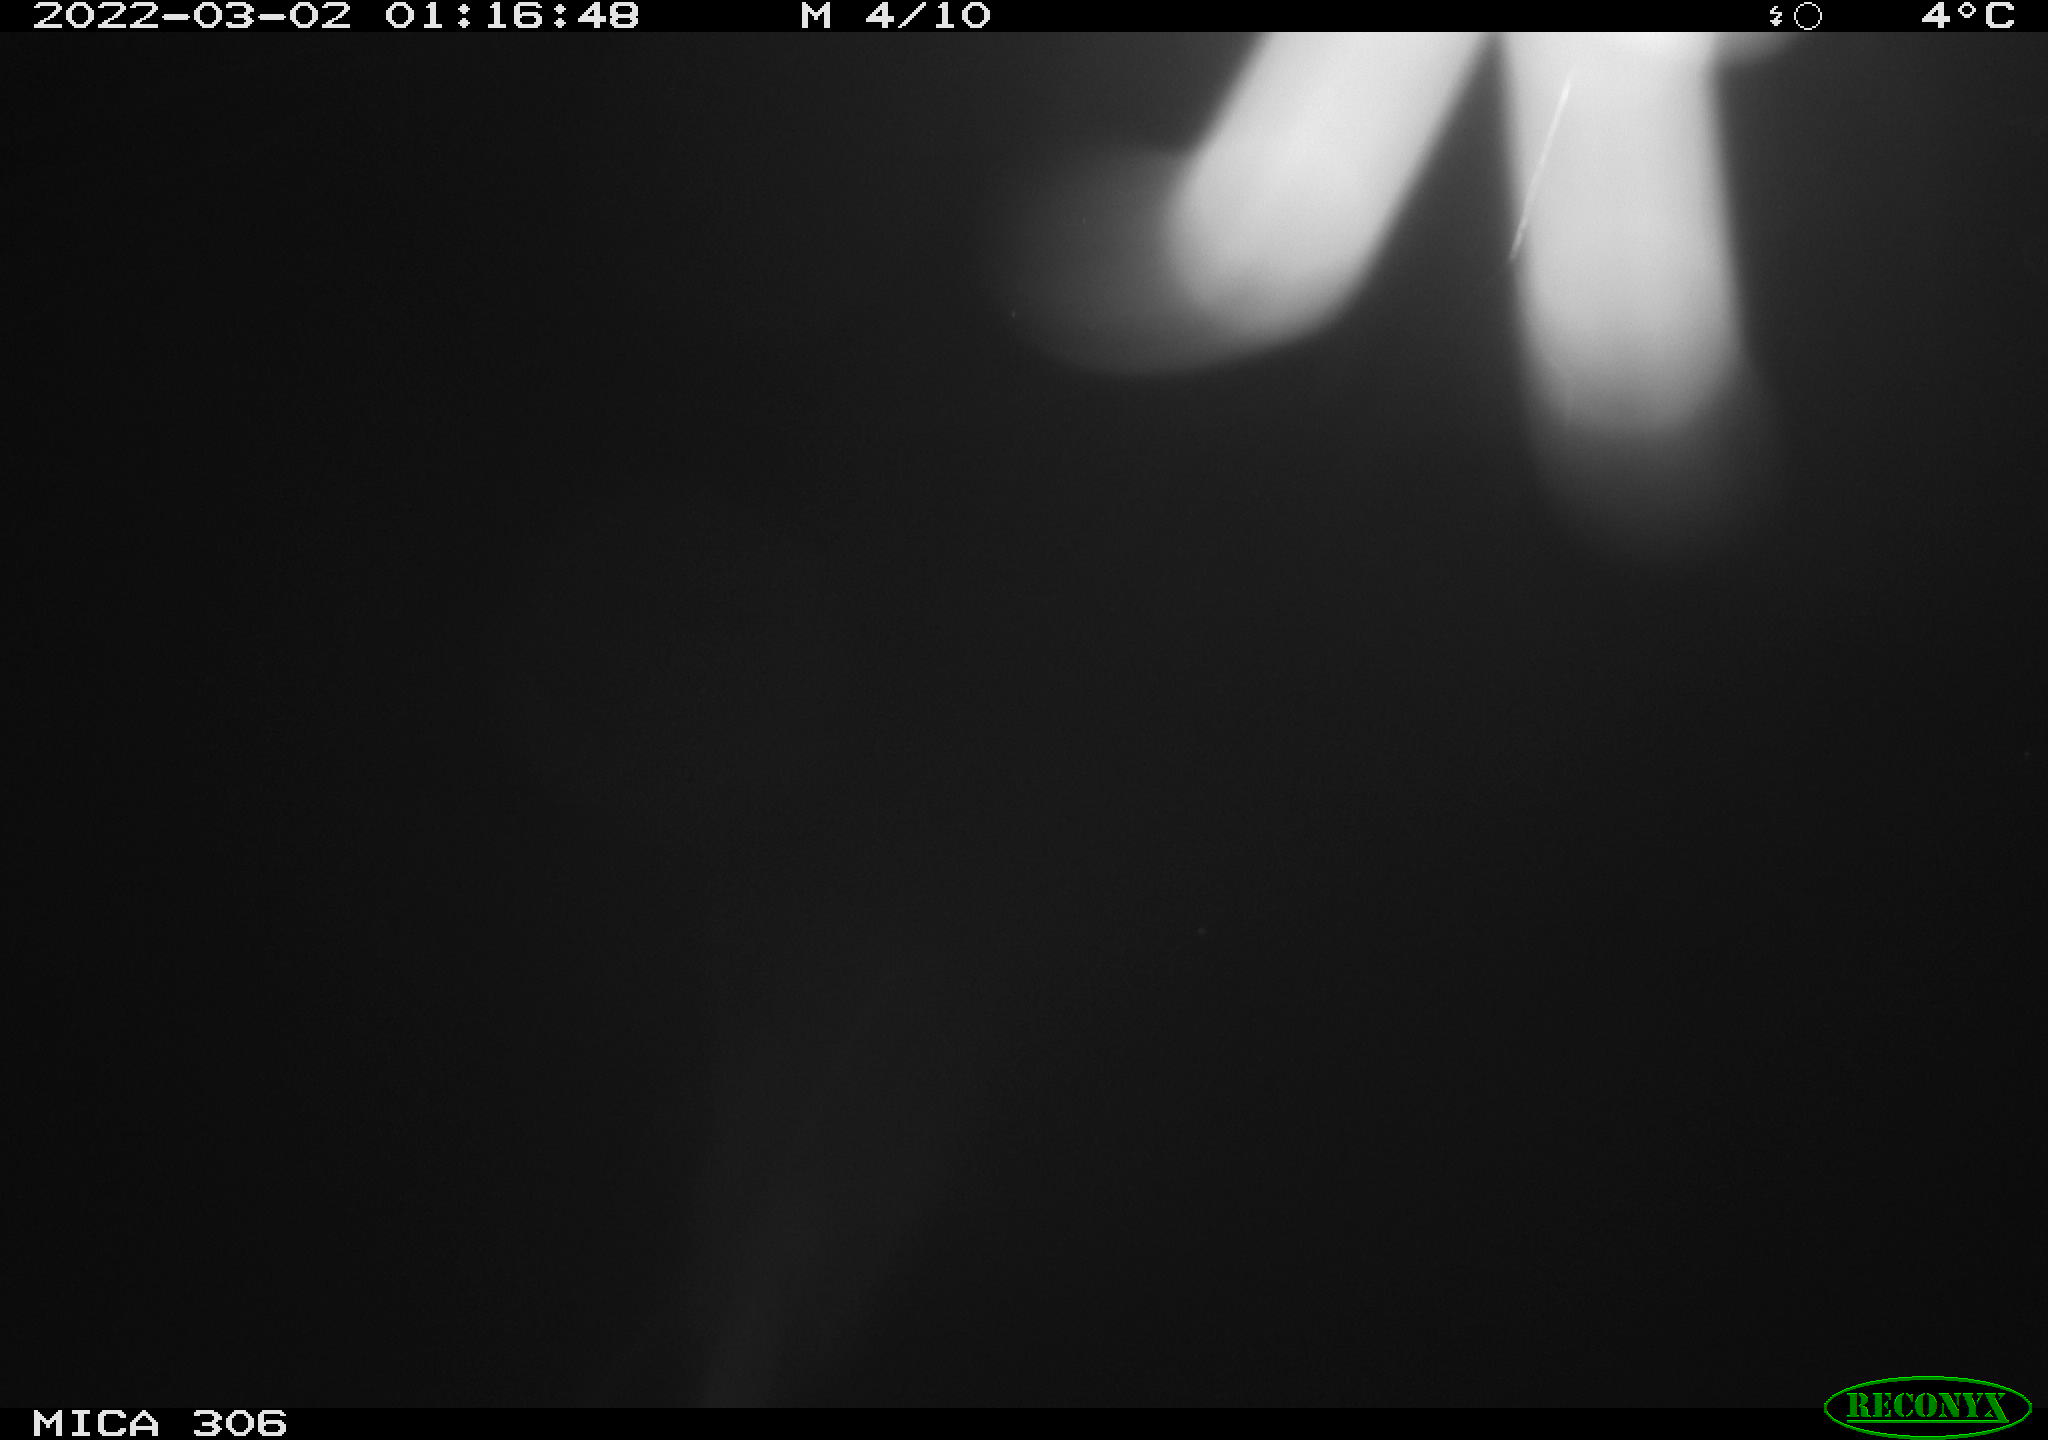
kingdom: Animalia
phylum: Chordata
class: Mammalia
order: Rodentia
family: Cricetidae
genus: Ondatra
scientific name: Ondatra zibethicus
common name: Muskrat
